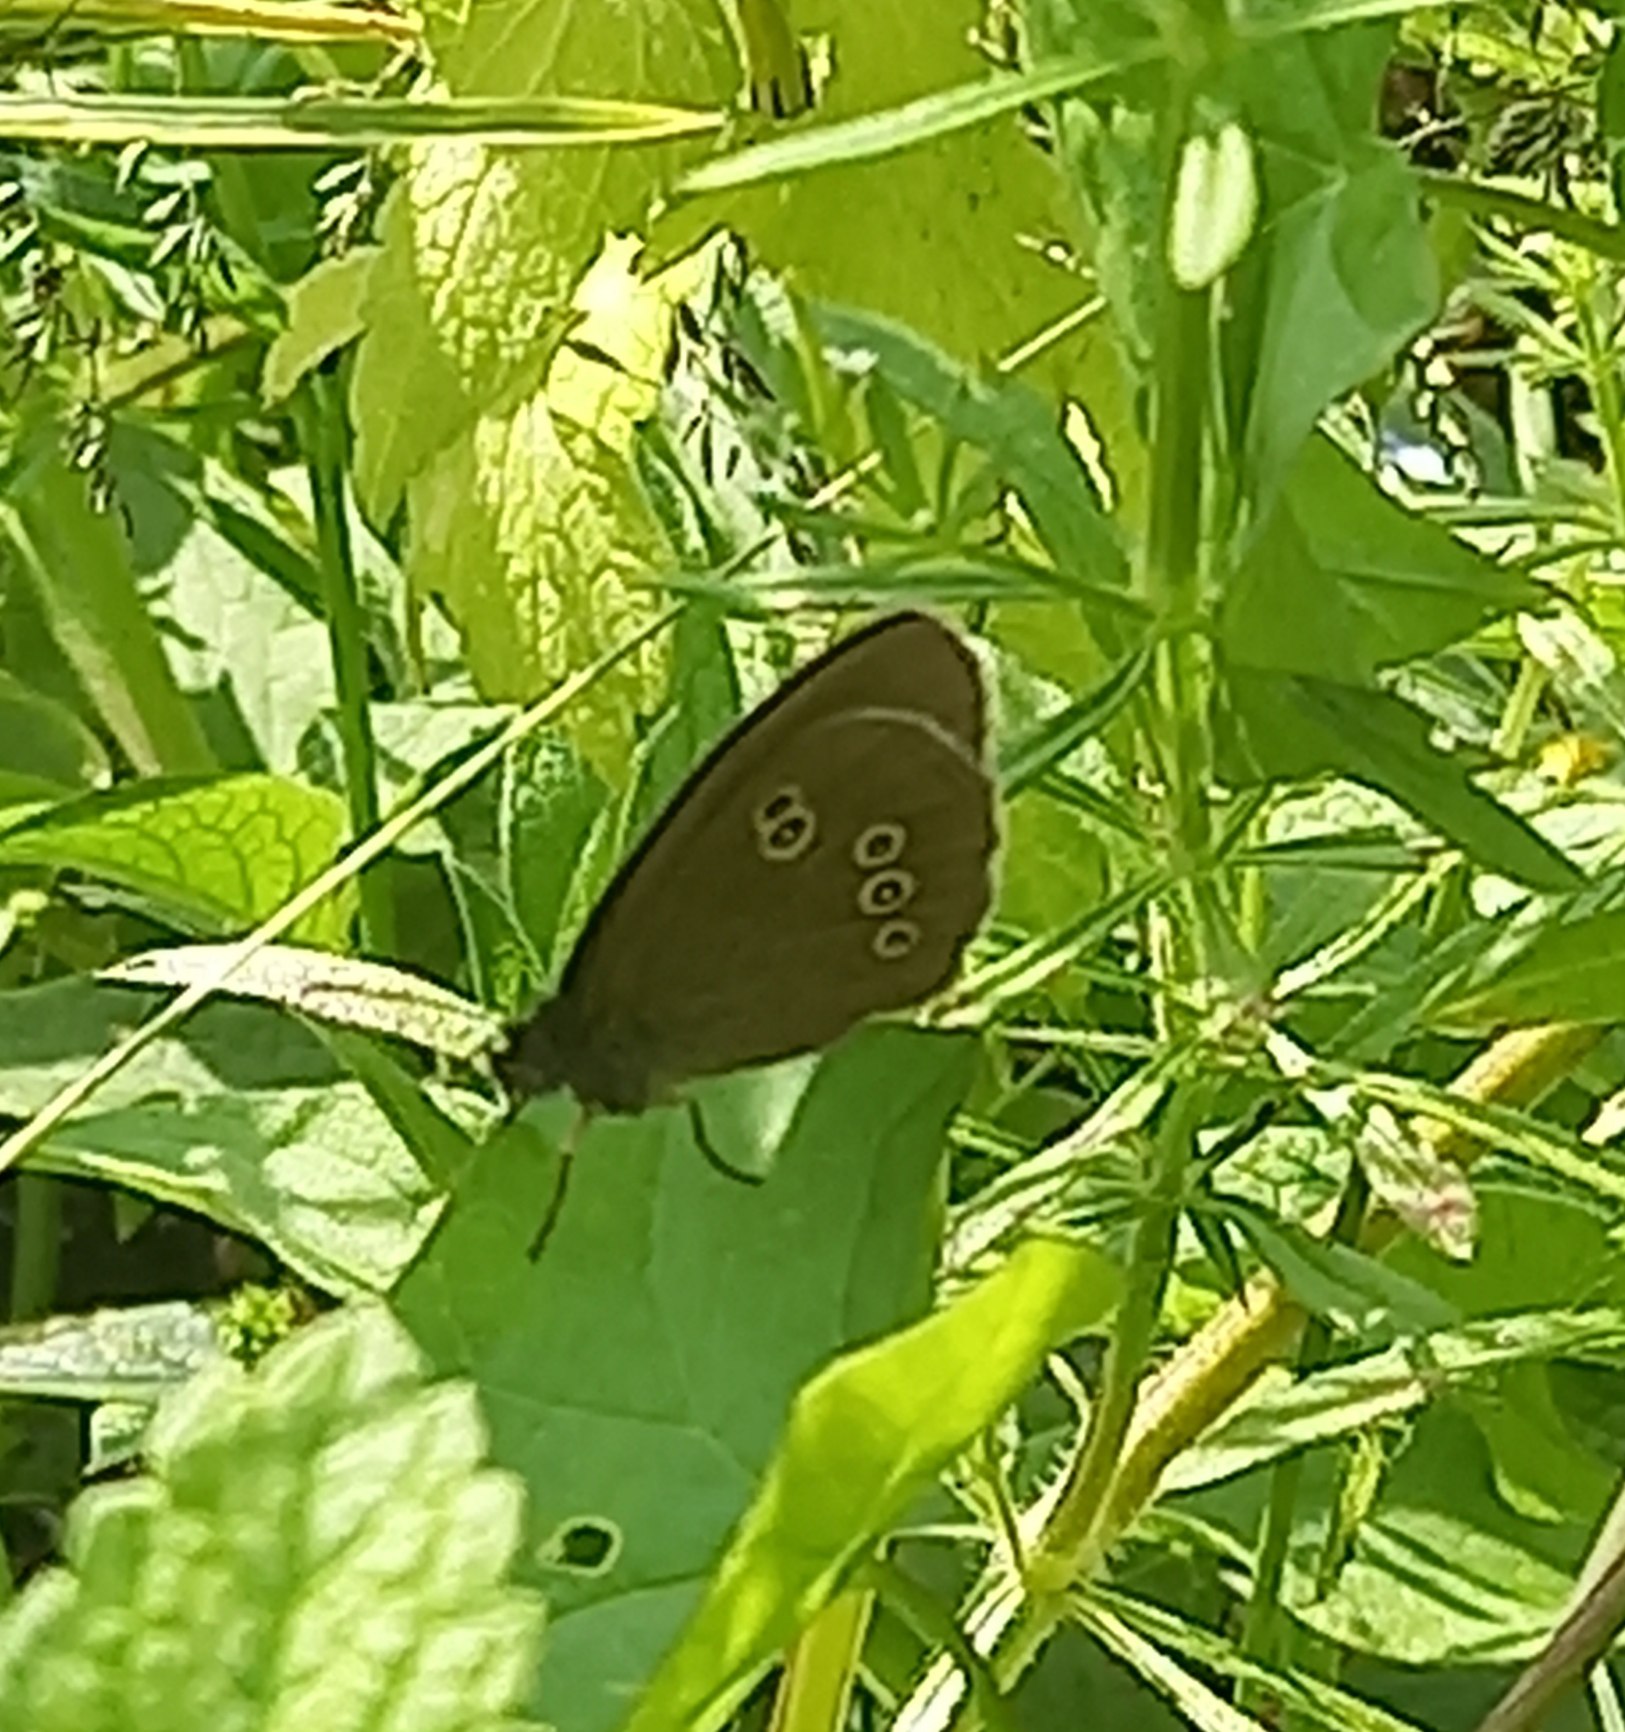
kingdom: Animalia
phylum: Arthropoda
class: Insecta
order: Lepidoptera
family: Nymphalidae
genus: Aphantopus
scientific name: Aphantopus hyperantus
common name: Engrandøje
